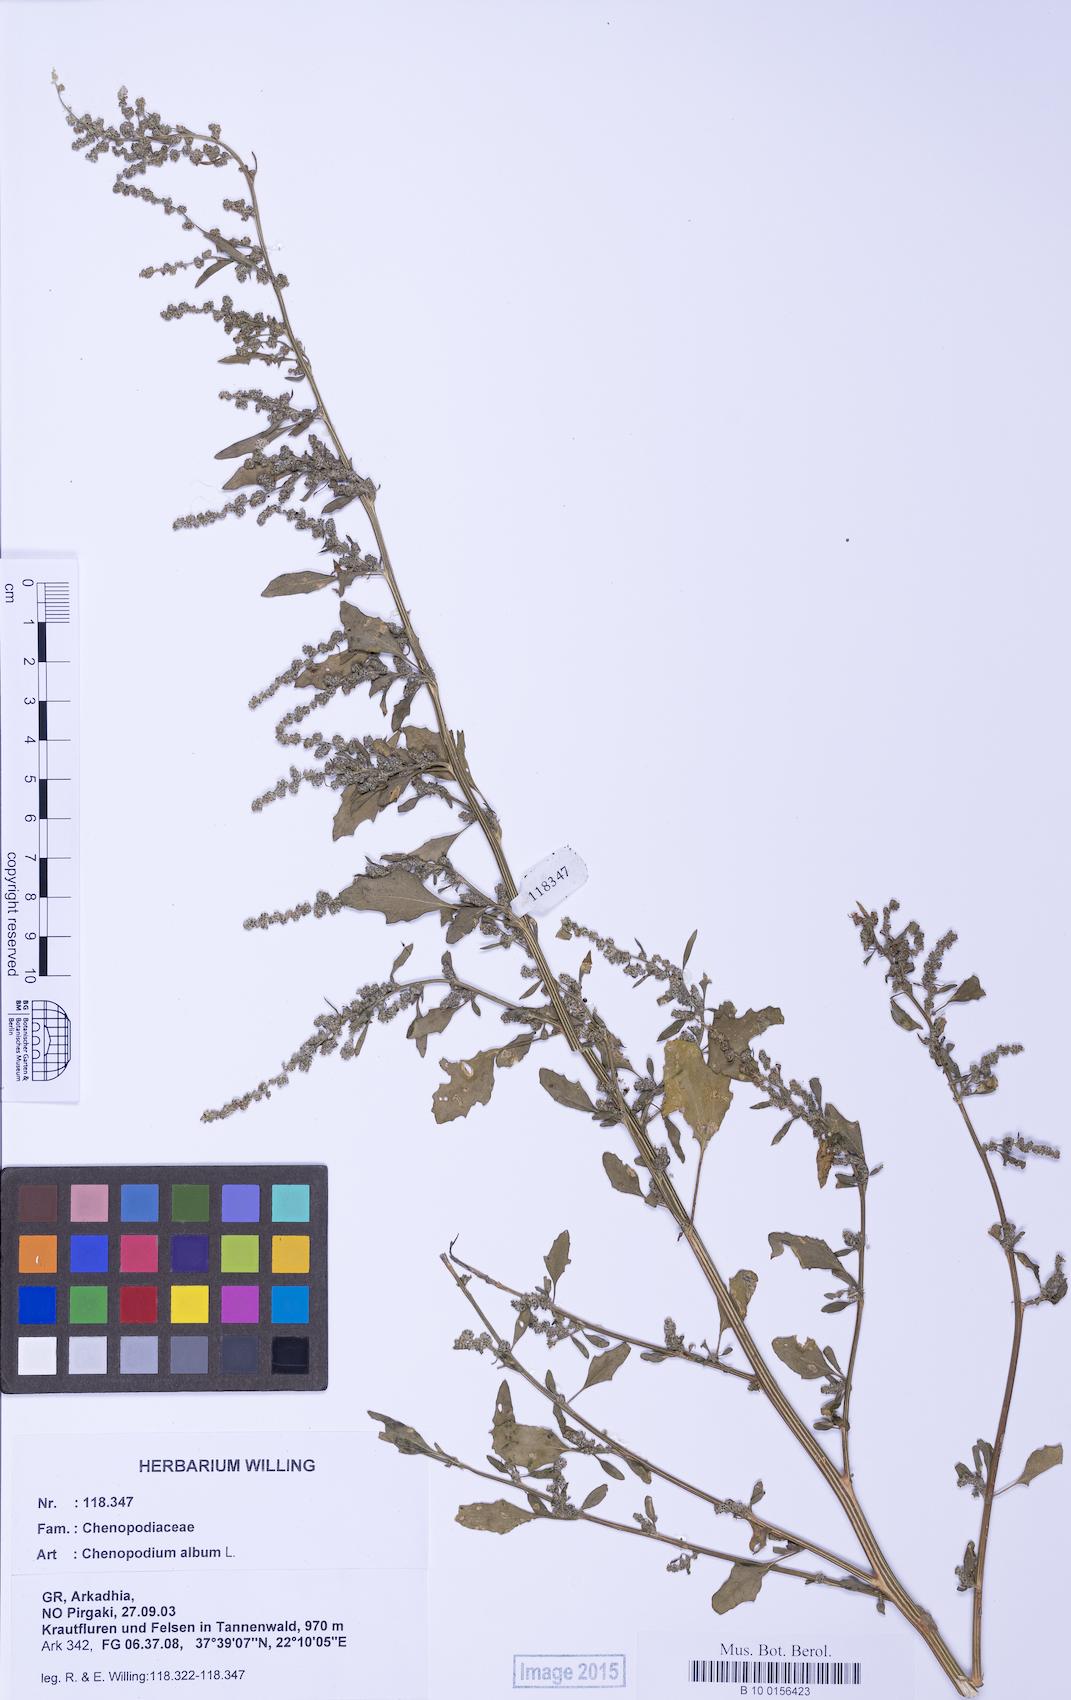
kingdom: Plantae
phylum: Tracheophyta
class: Magnoliopsida
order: Caryophyllales
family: Amaranthaceae
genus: Chenopodium
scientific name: Chenopodium album
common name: Fat-hen
